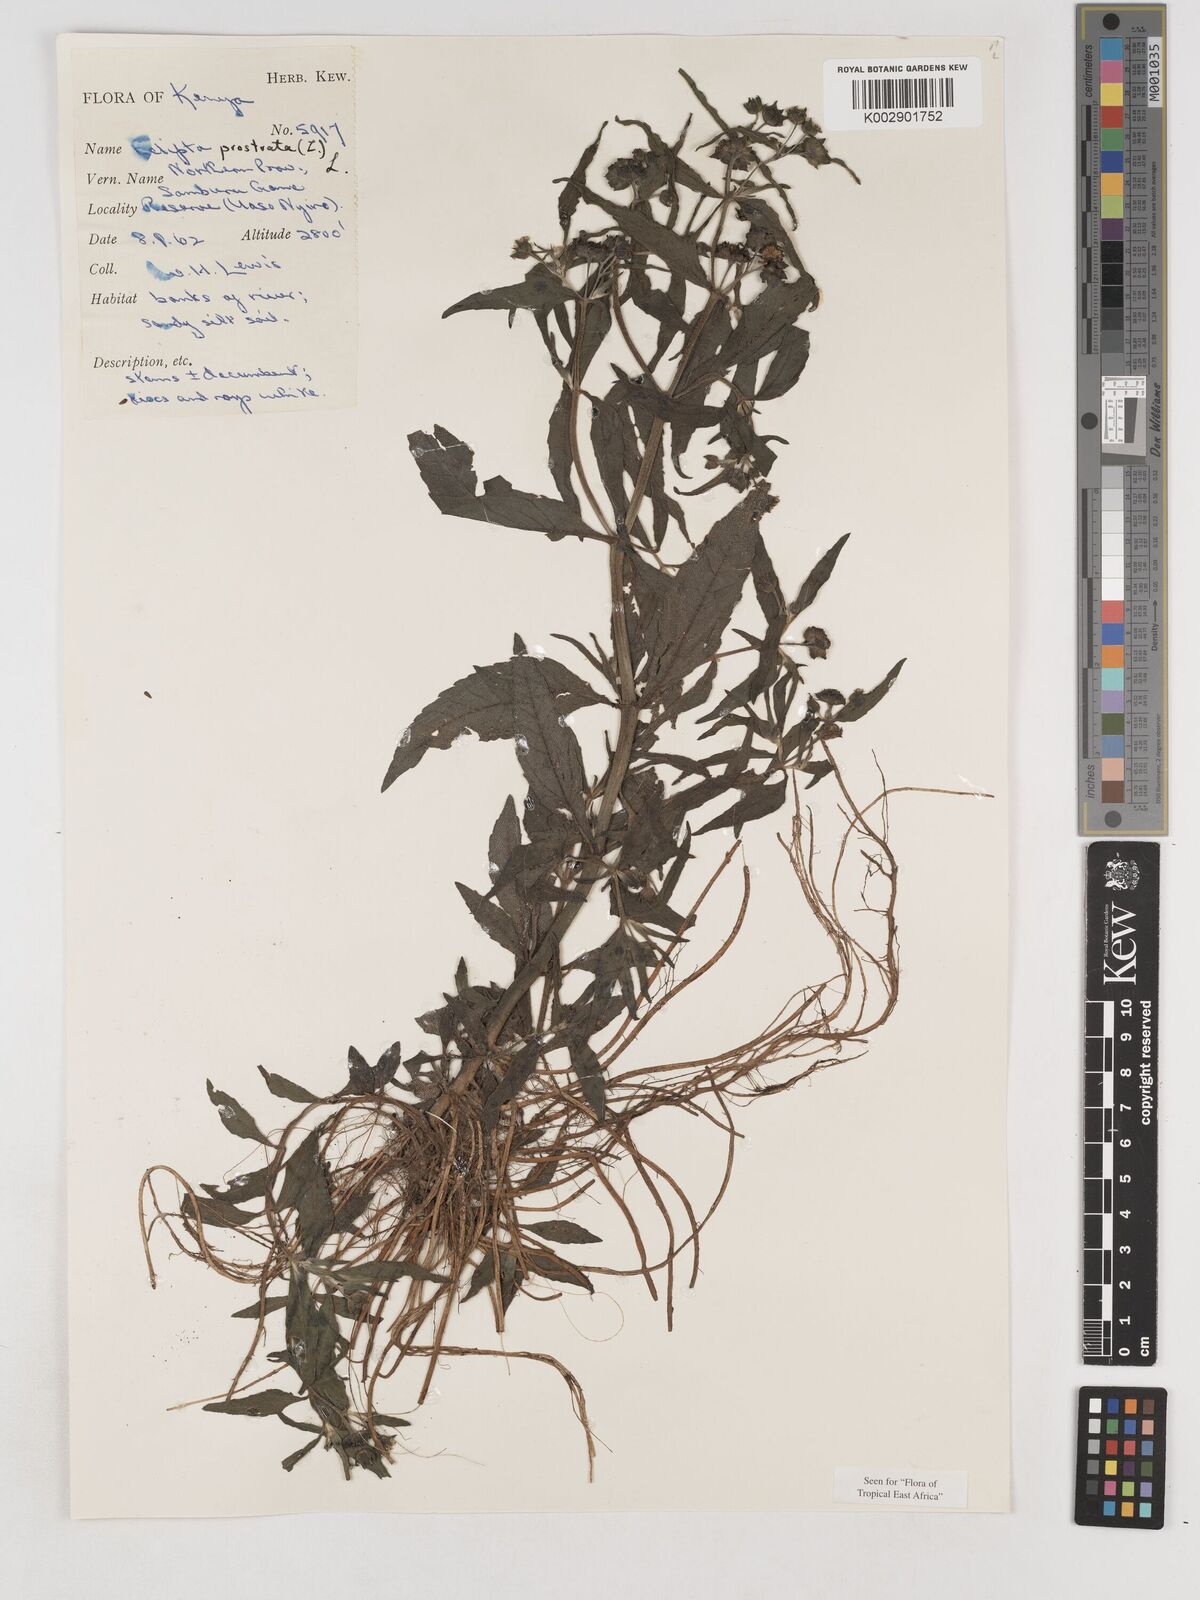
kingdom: Plantae
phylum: Tracheophyta
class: Magnoliopsida
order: Asterales
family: Asteraceae
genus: Eclipta
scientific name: Eclipta prostrata
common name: False daisy
